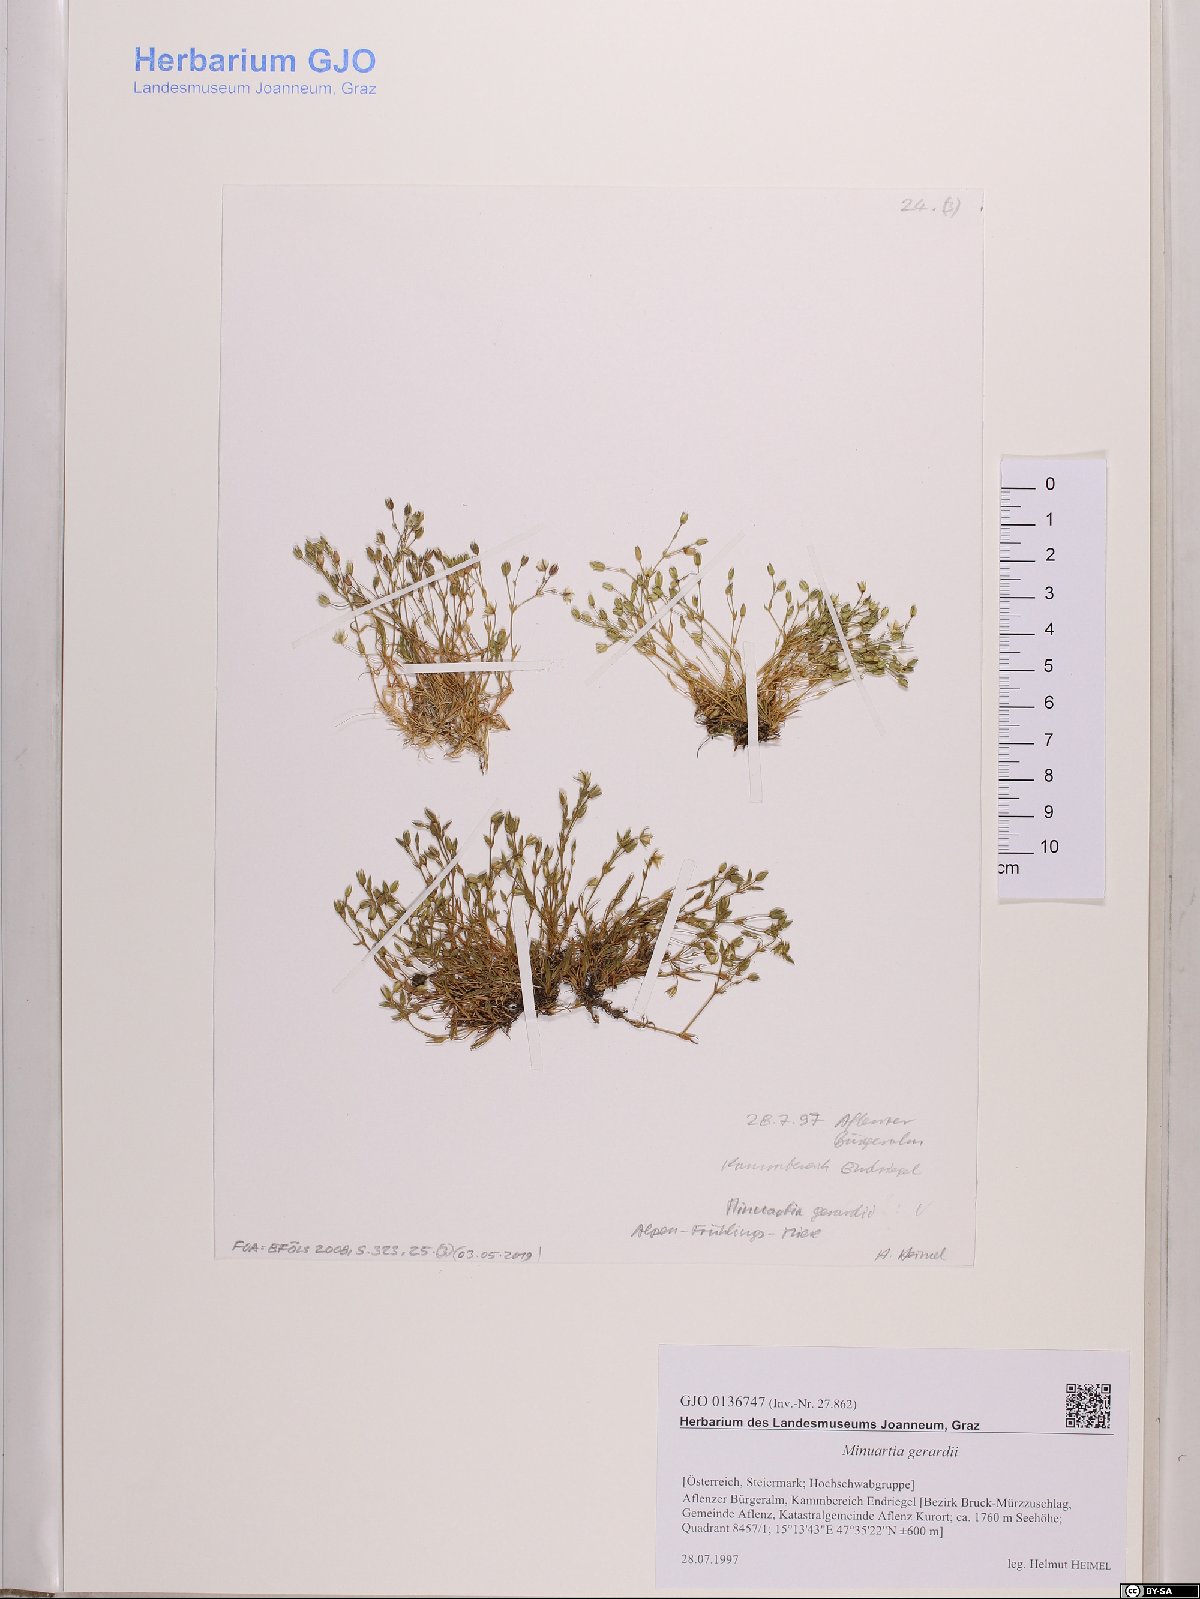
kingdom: Plantae
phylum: Tracheophyta
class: Magnoliopsida
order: Caryophyllales
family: Caryophyllaceae
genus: Sabulina
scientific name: Sabulina verna
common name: Spring sandwort
